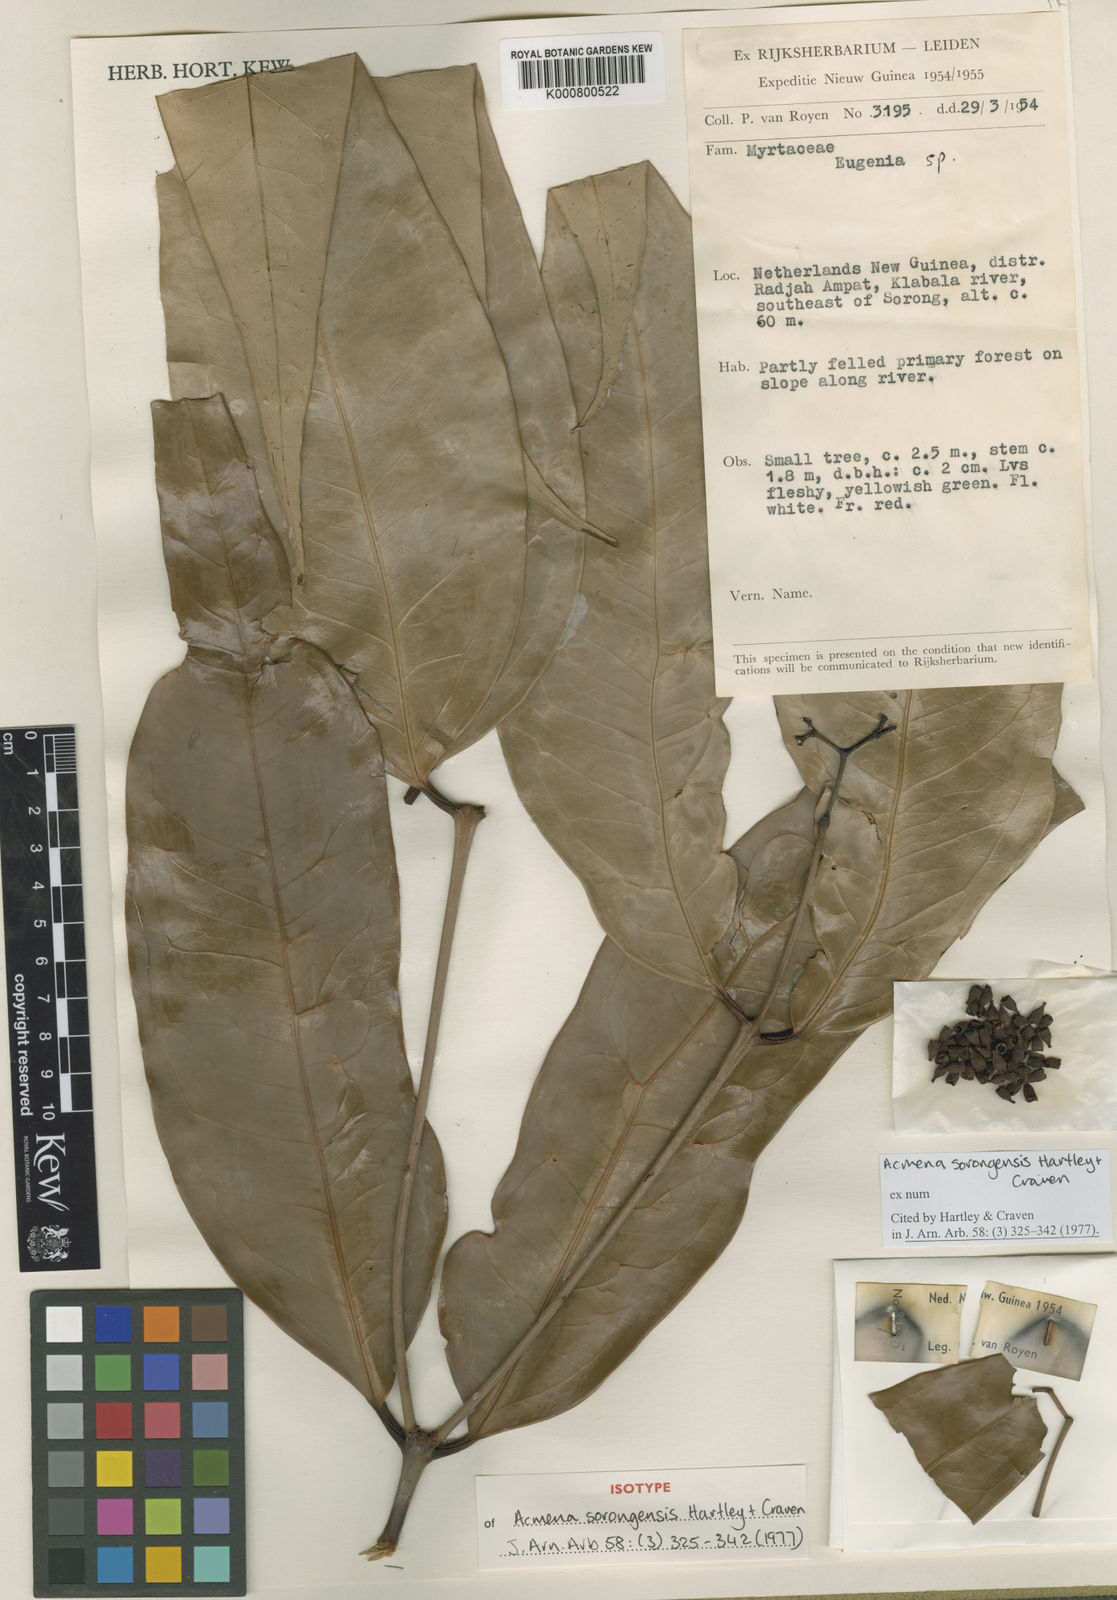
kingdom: Plantae
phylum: Tracheophyta
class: Magnoliopsida
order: Myrtales
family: Myrtaceae
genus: Syzygium
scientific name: Syzygium sorongense
